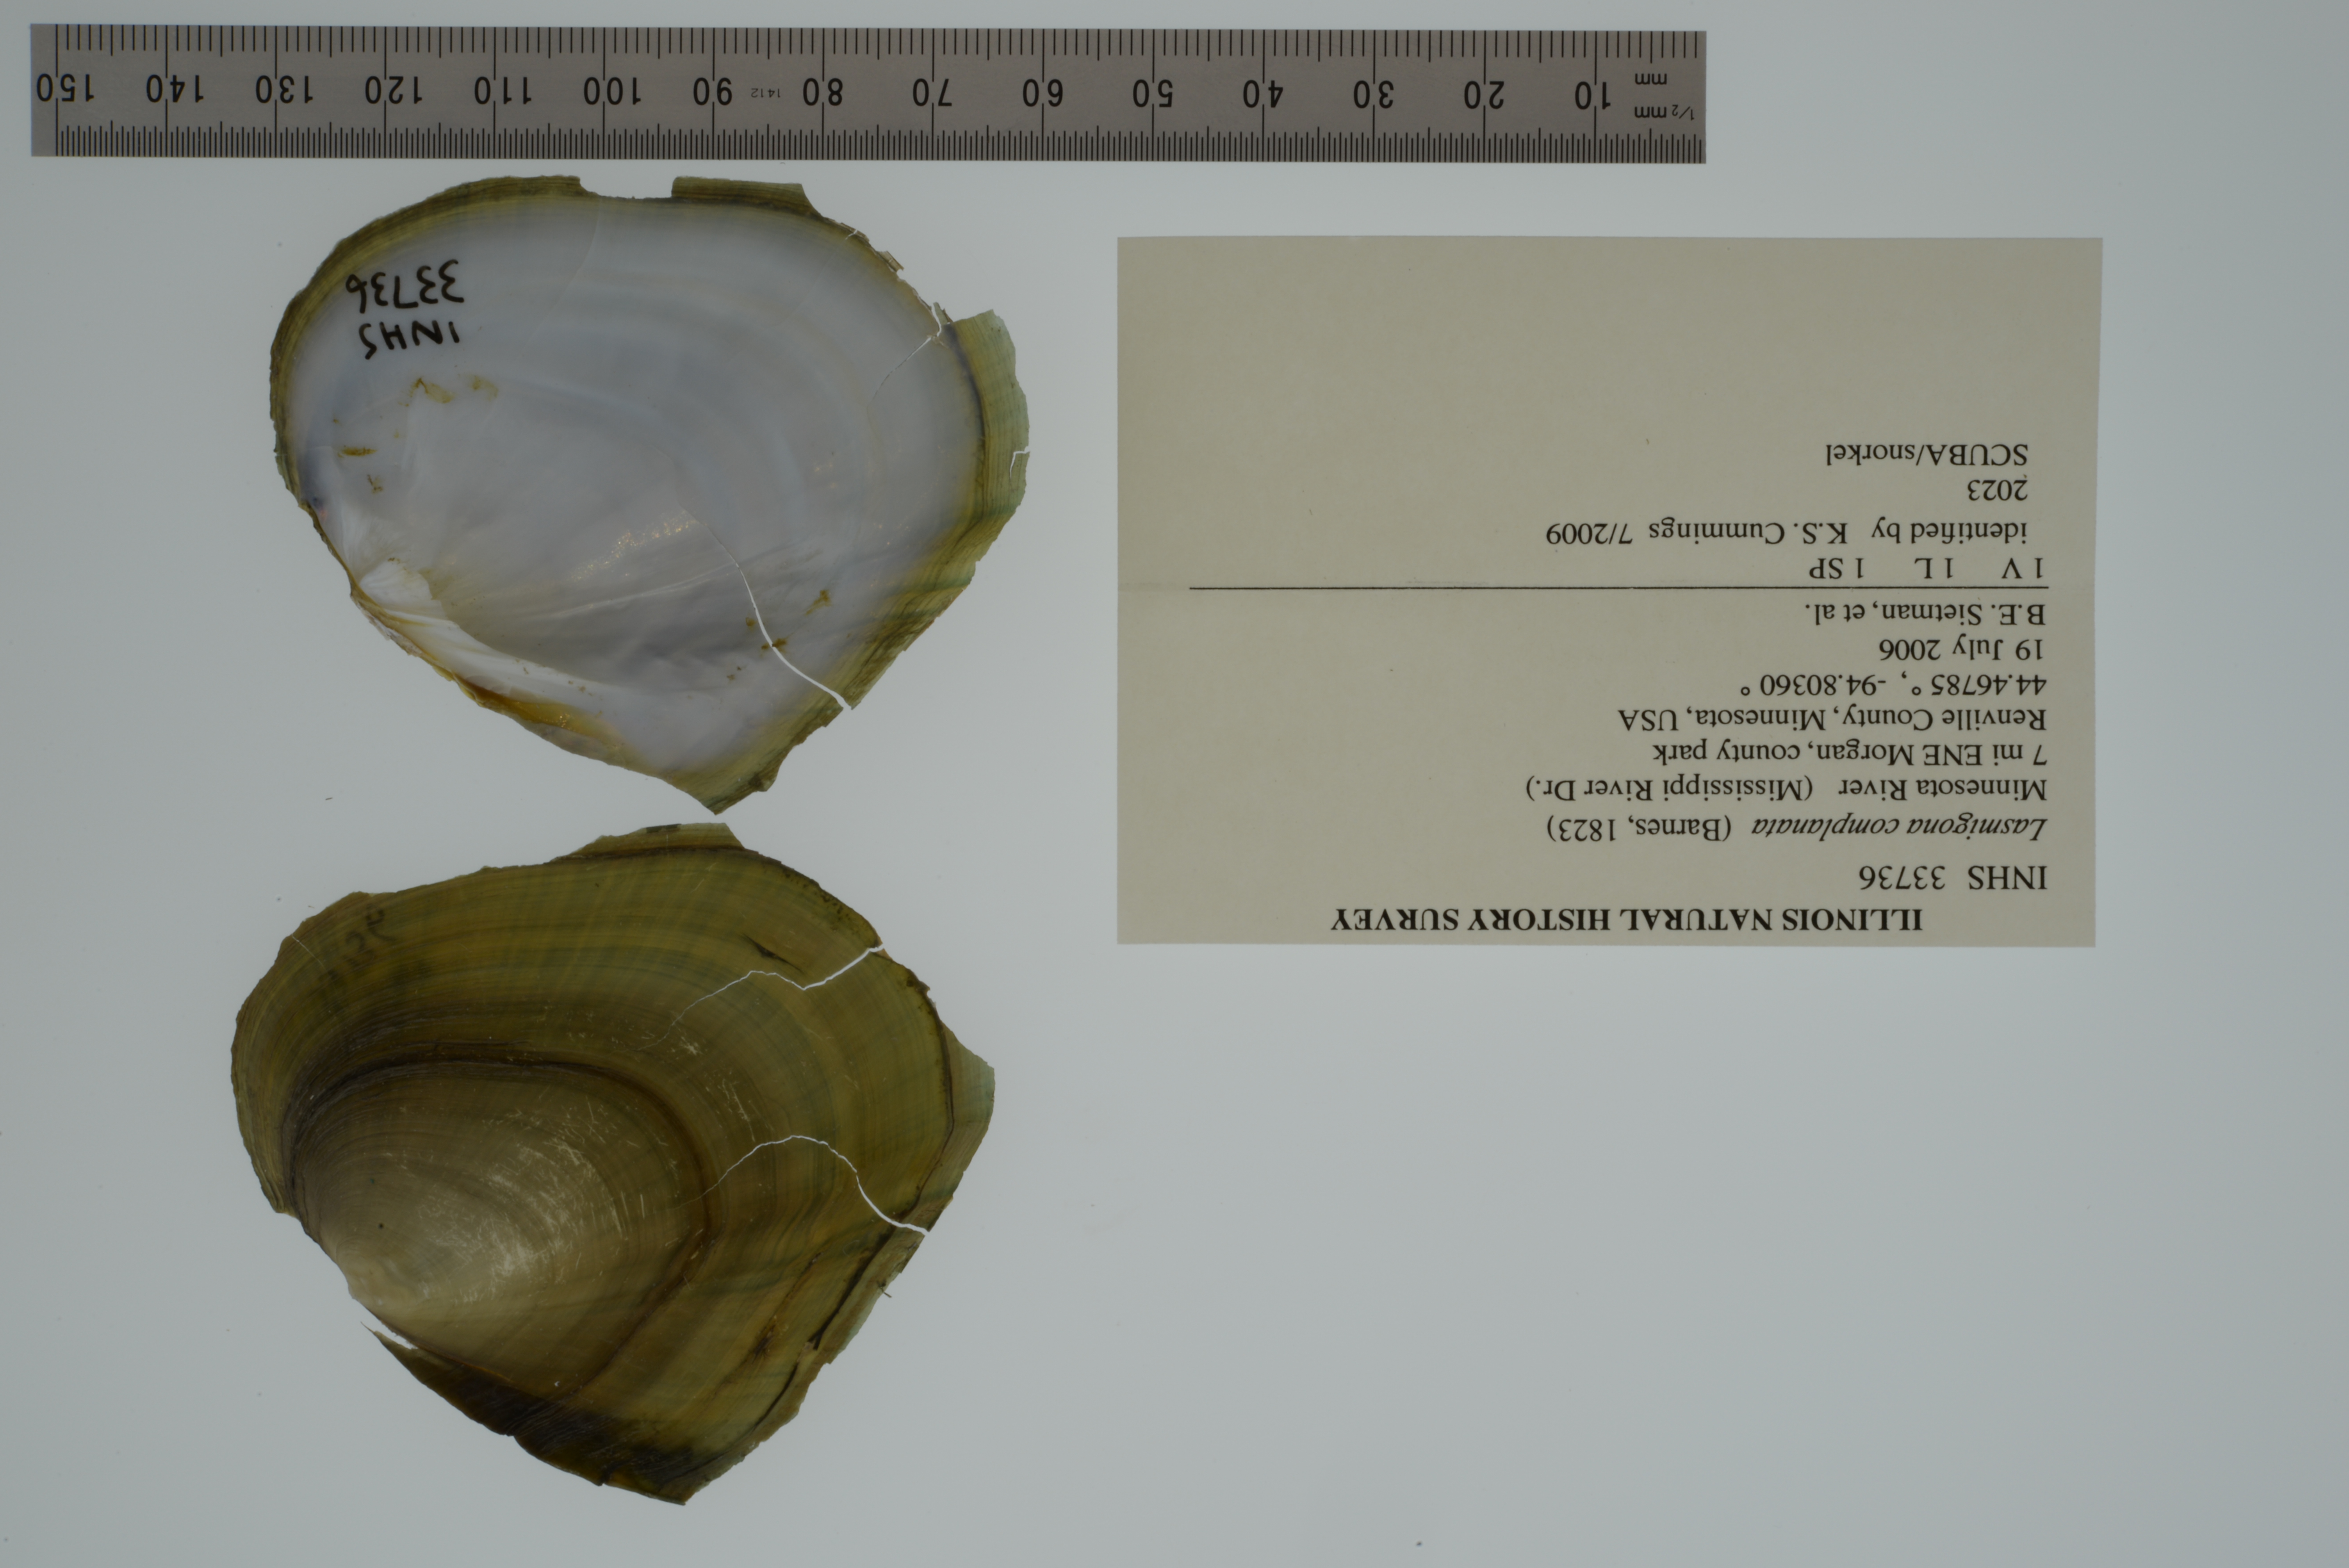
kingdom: Animalia
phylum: Mollusca
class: Bivalvia
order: Unionida
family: Unionidae
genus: Lasmigona
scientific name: Lasmigona complanata
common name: White heelsplitter
